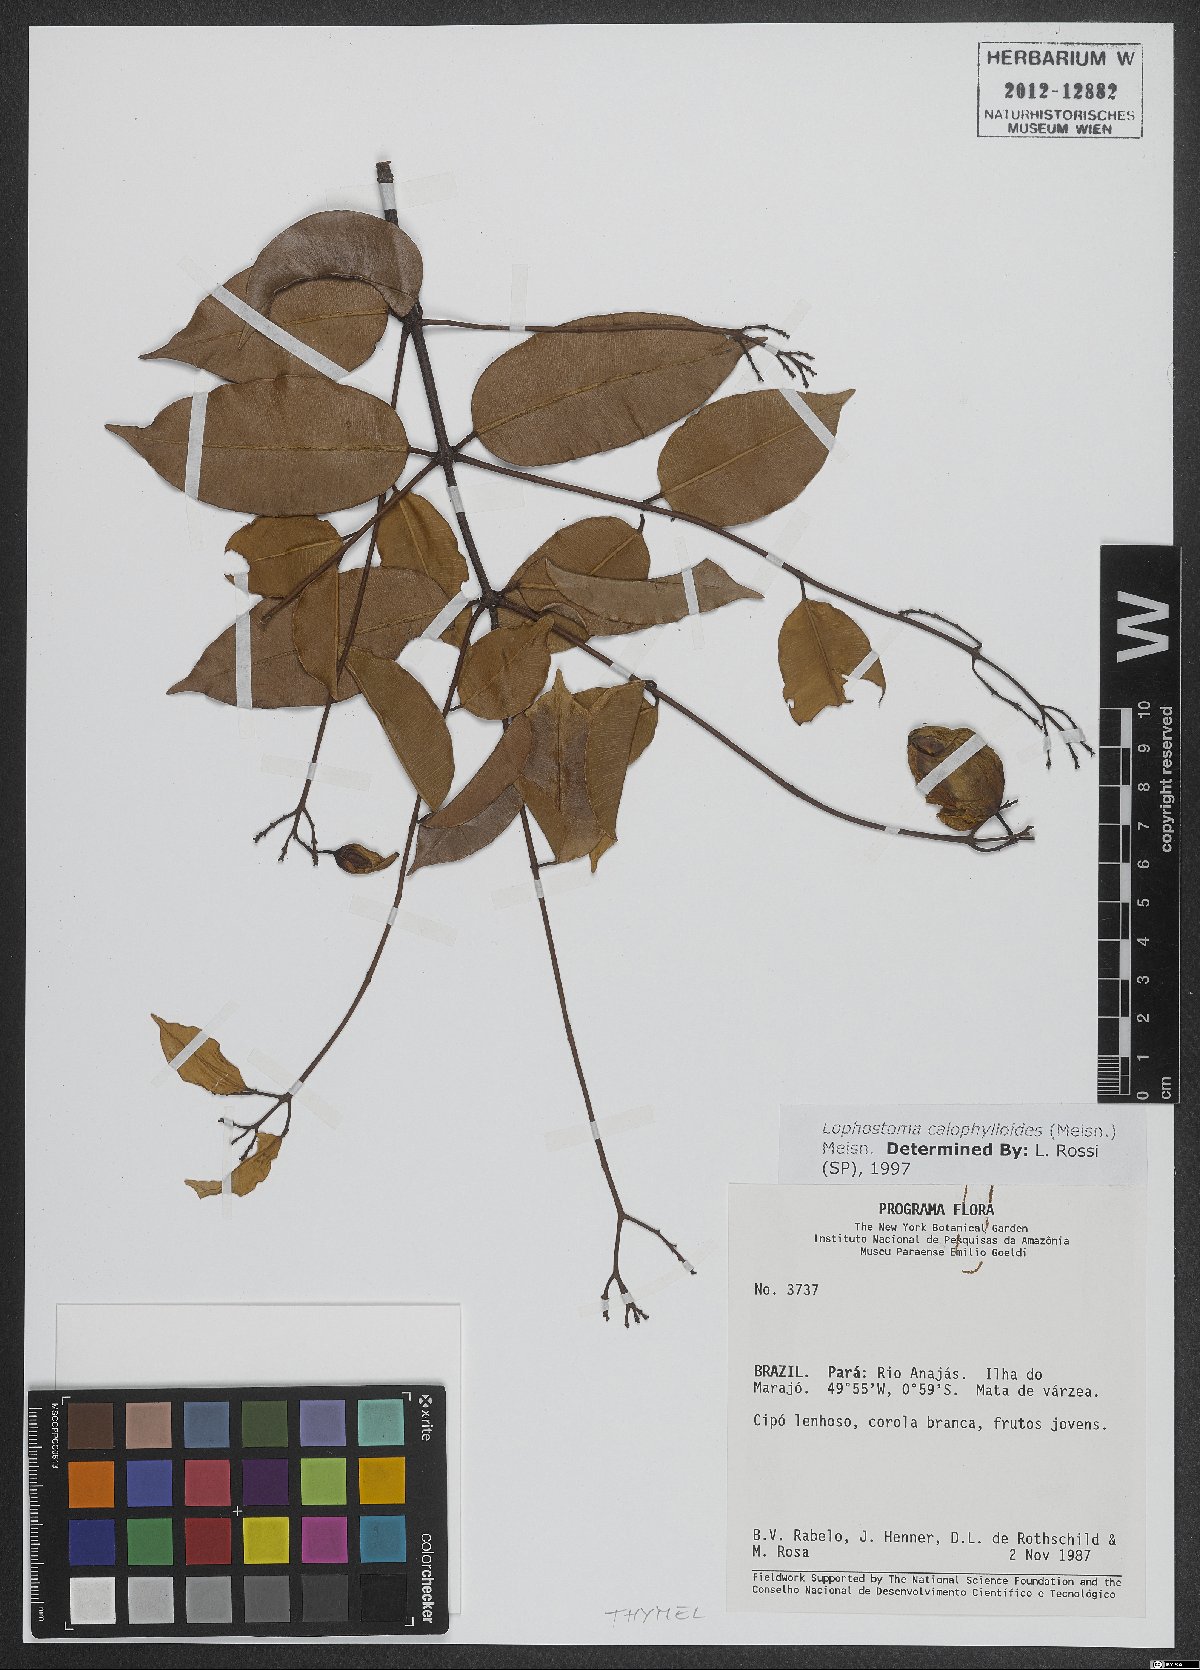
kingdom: Plantae
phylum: Tracheophyta
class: Magnoliopsida
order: Malvales
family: Thymelaeaceae
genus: Lophostoma
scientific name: Lophostoma calophylloides
